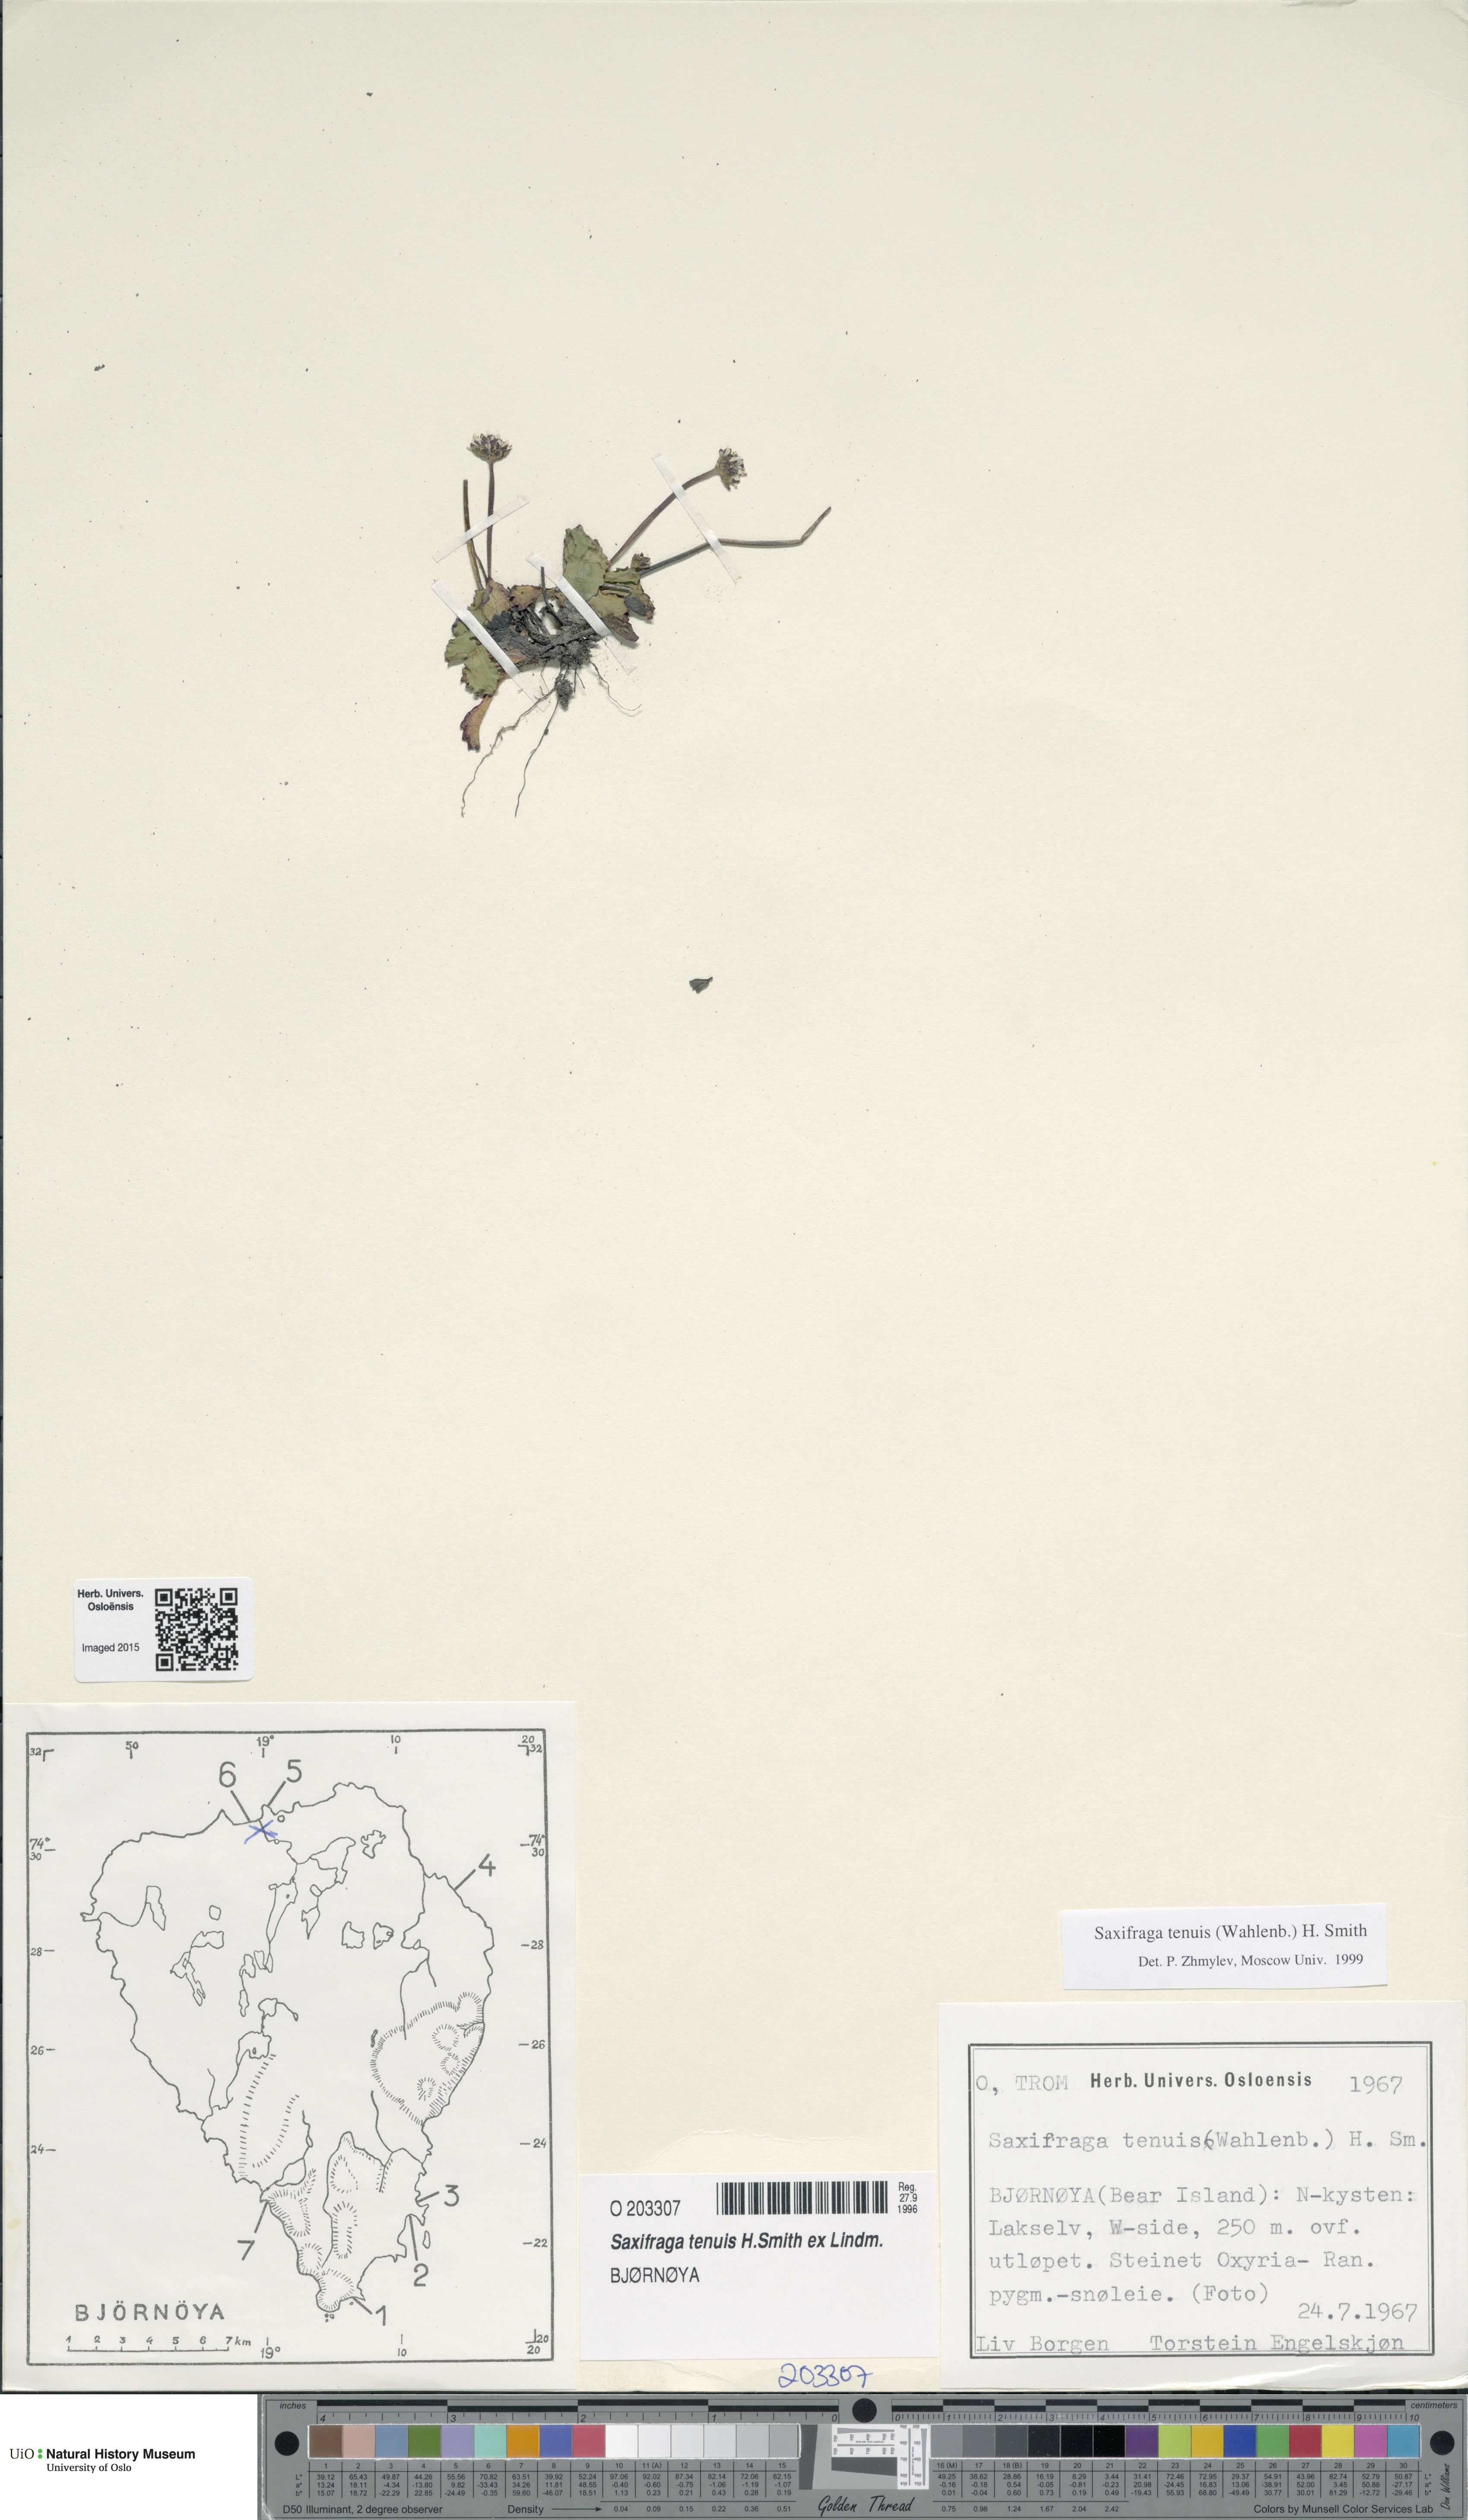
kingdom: Plantae
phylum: Tracheophyta
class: Magnoliopsida
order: Saxifragales
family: Saxifragaceae
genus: Micranthes
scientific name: Micranthes tenuis
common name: Ottertail pass saxifrage
